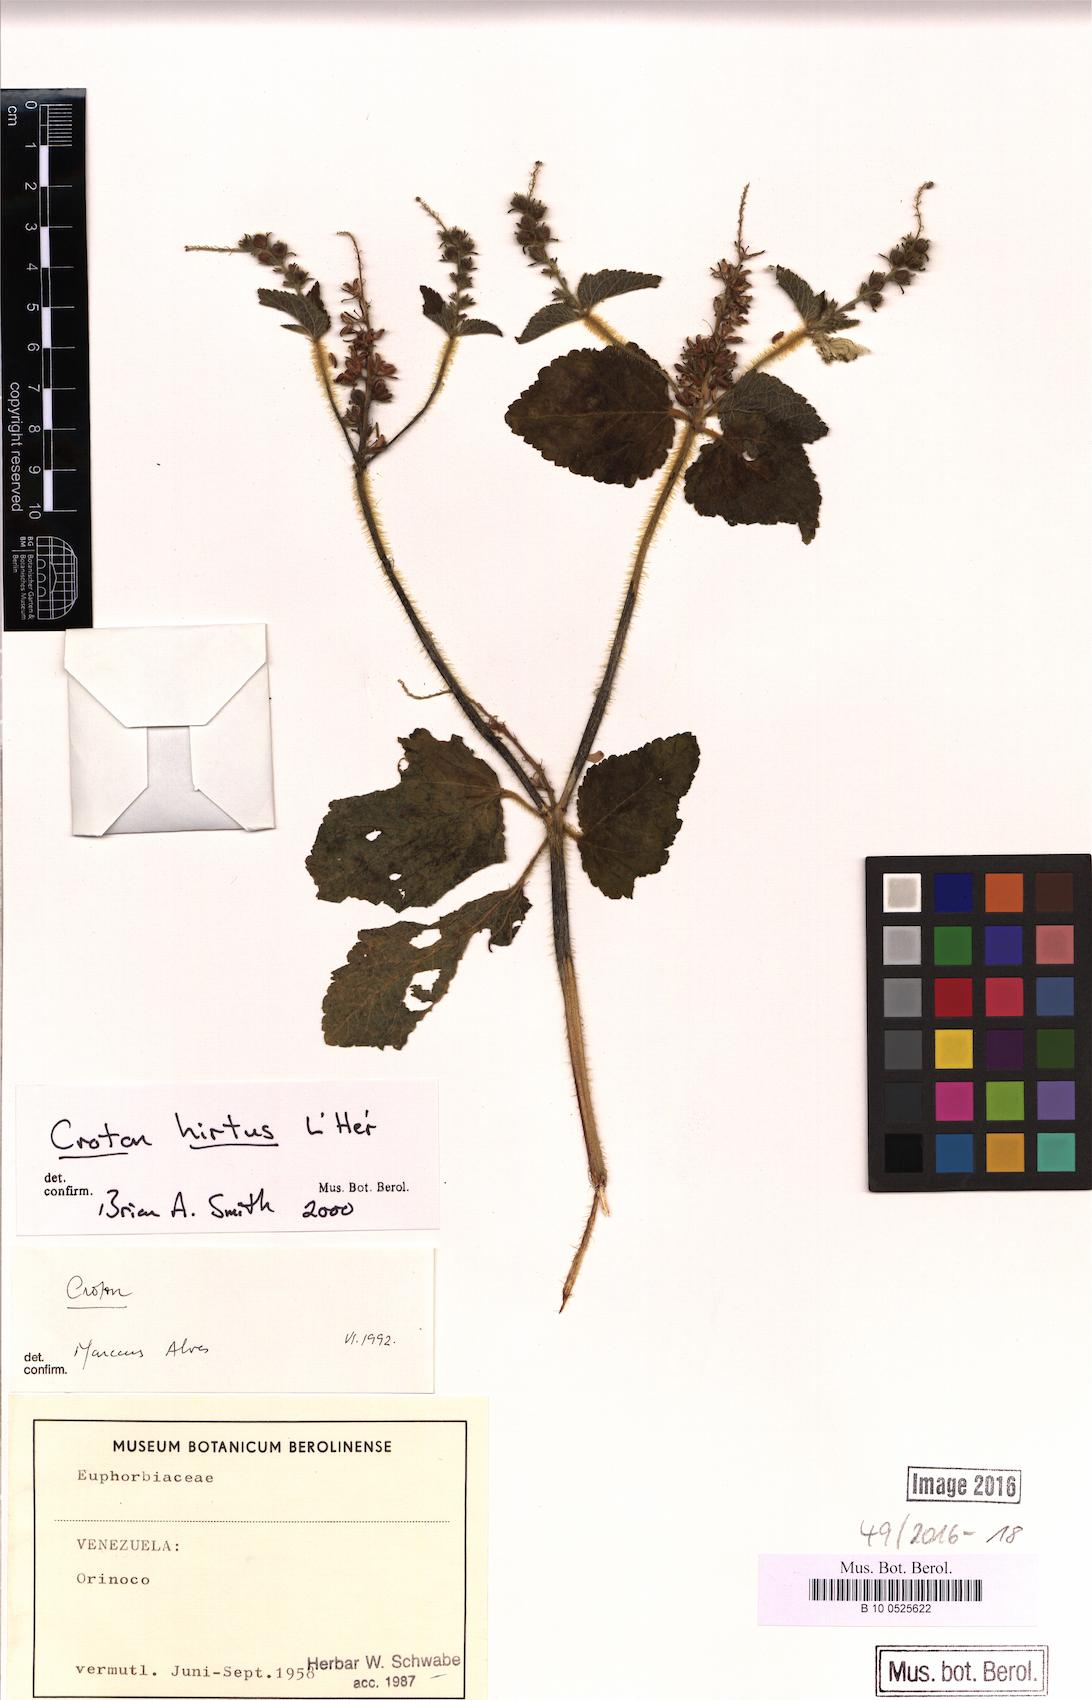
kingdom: Plantae
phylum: Tracheophyta
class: Magnoliopsida
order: Malpighiales
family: Euphorbiaceae
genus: Croton
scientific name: Croton hirtus
